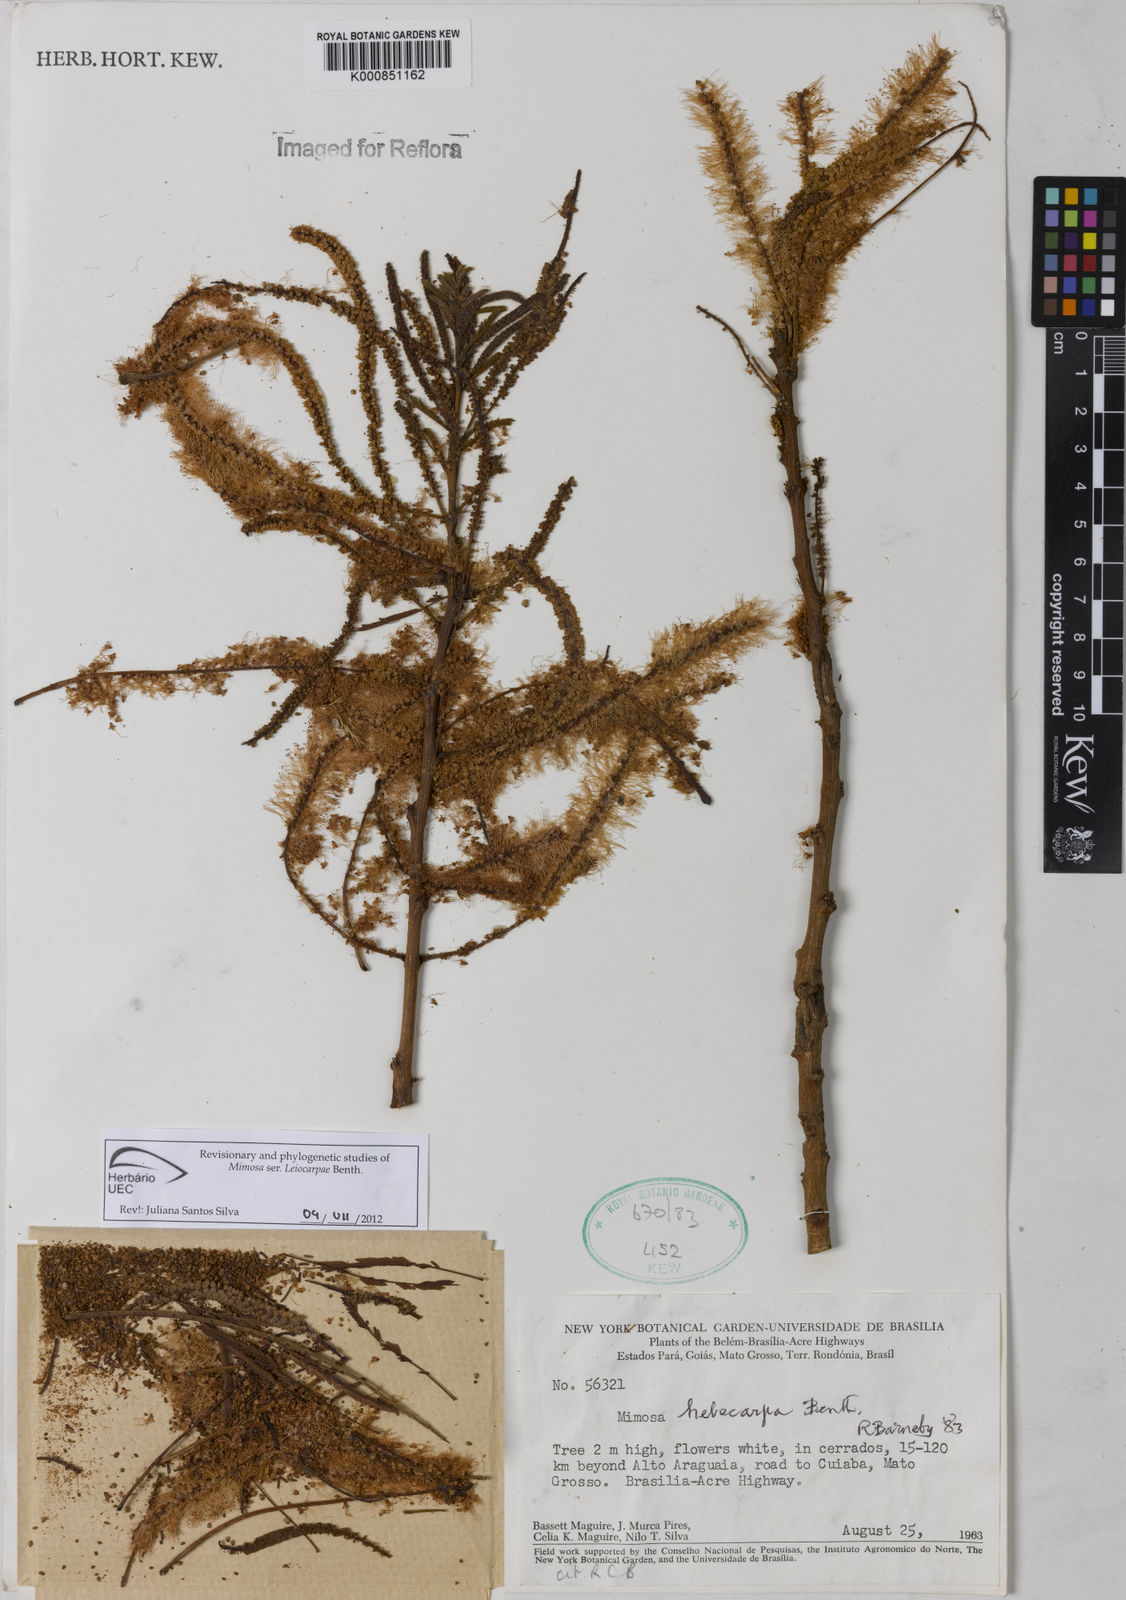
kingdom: Plantae
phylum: Tracheophyta
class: Magnoliopsida
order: Fabales
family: Fabaceae
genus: Mimosa
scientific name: Mimosa hebecarpa
